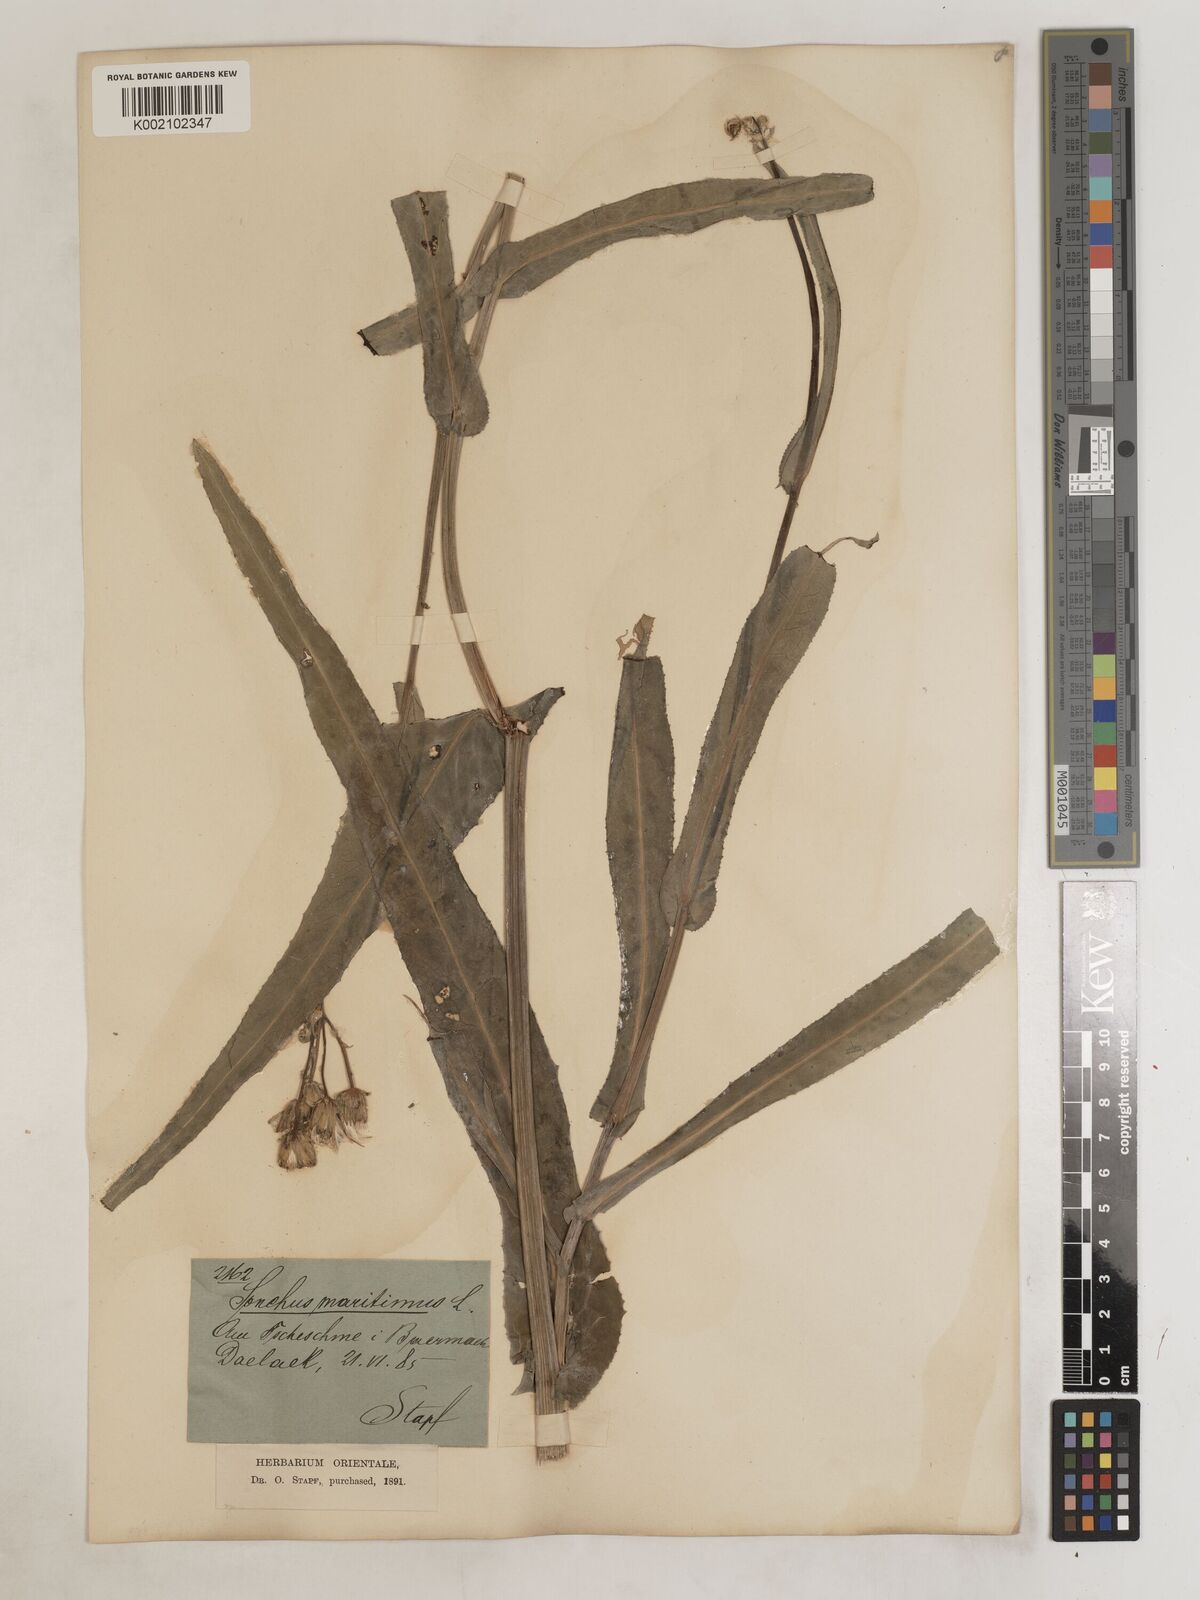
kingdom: Plantae
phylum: Tracheophyta
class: Magnoliopsida
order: Asterales
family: Asteraceae
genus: Sonchus
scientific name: Sonchus maritimus
